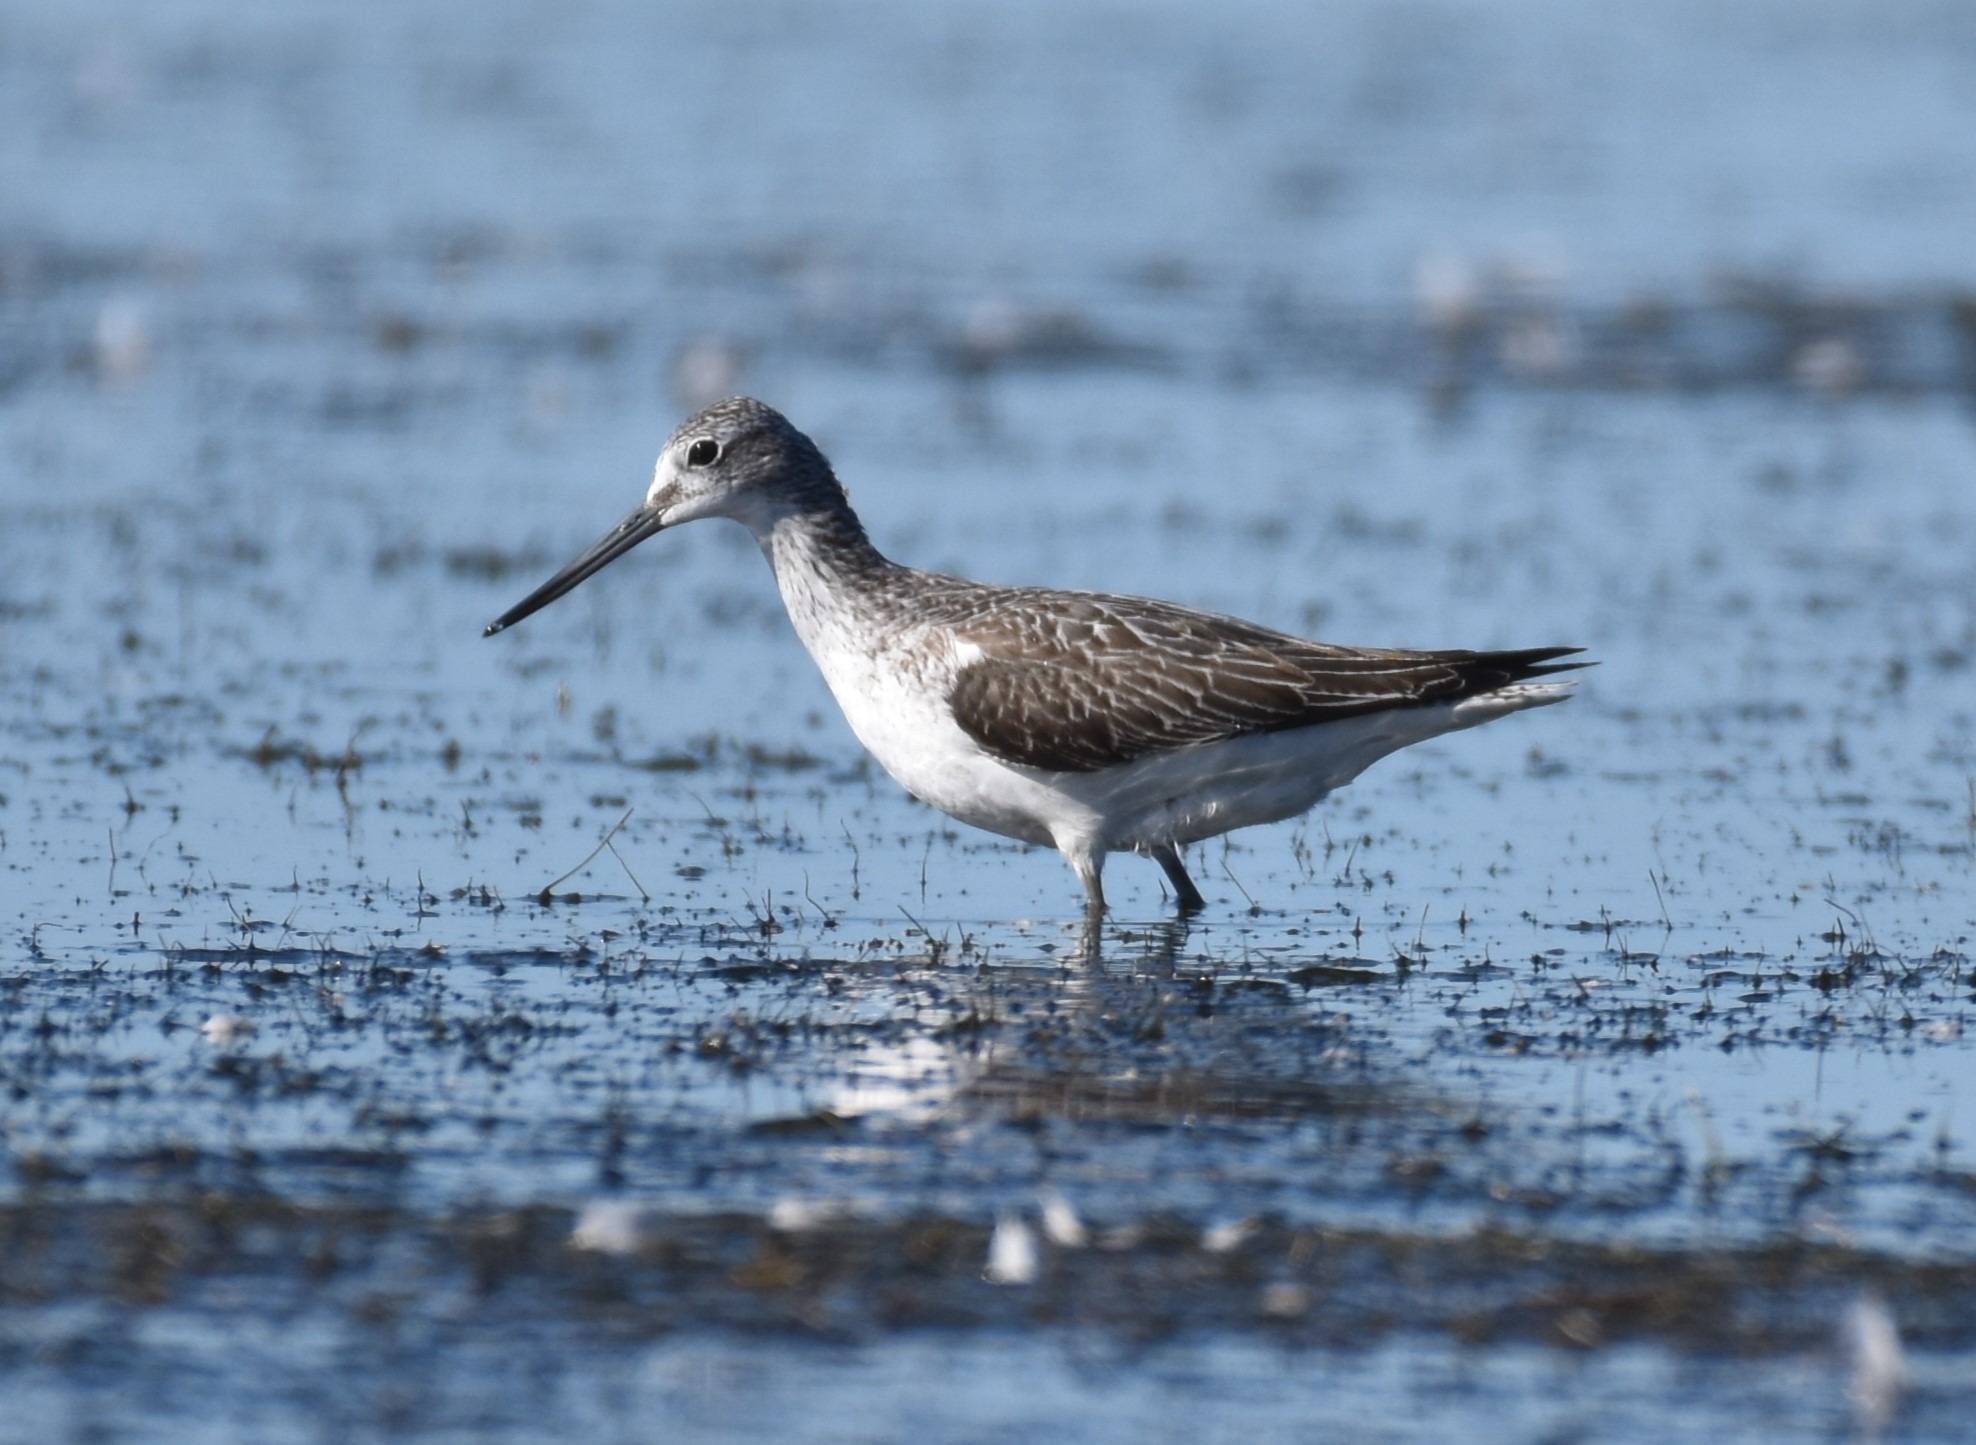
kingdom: Animalia
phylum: Chordata
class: Aves
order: Charadriiformes
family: Scolopacidae
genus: Tringa
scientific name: Tringa nebularia
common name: Hvidklire
